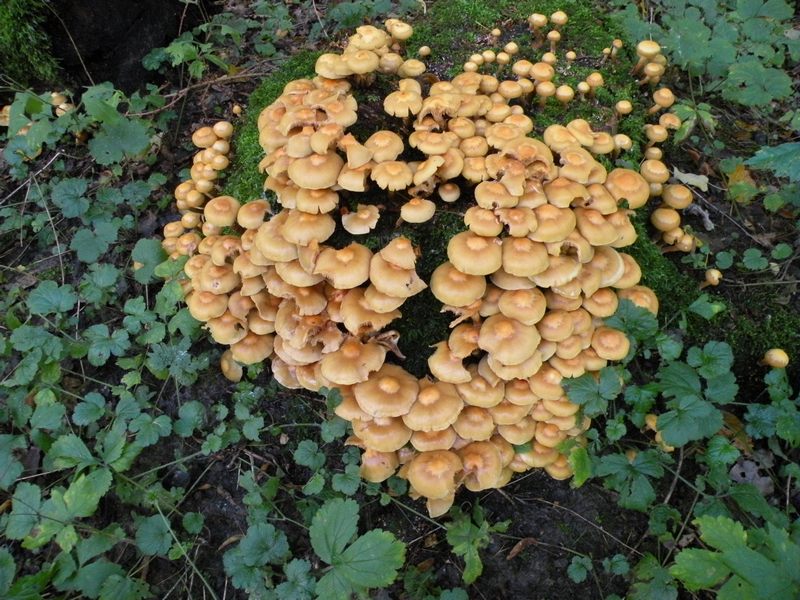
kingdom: Fungi
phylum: Basidiomycota
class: Agaricomycetes
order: Agaricales
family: Strophariaceae
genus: Kuehneromyces
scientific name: Kuehneromyces mutabilis
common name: foranderlig skælhat
